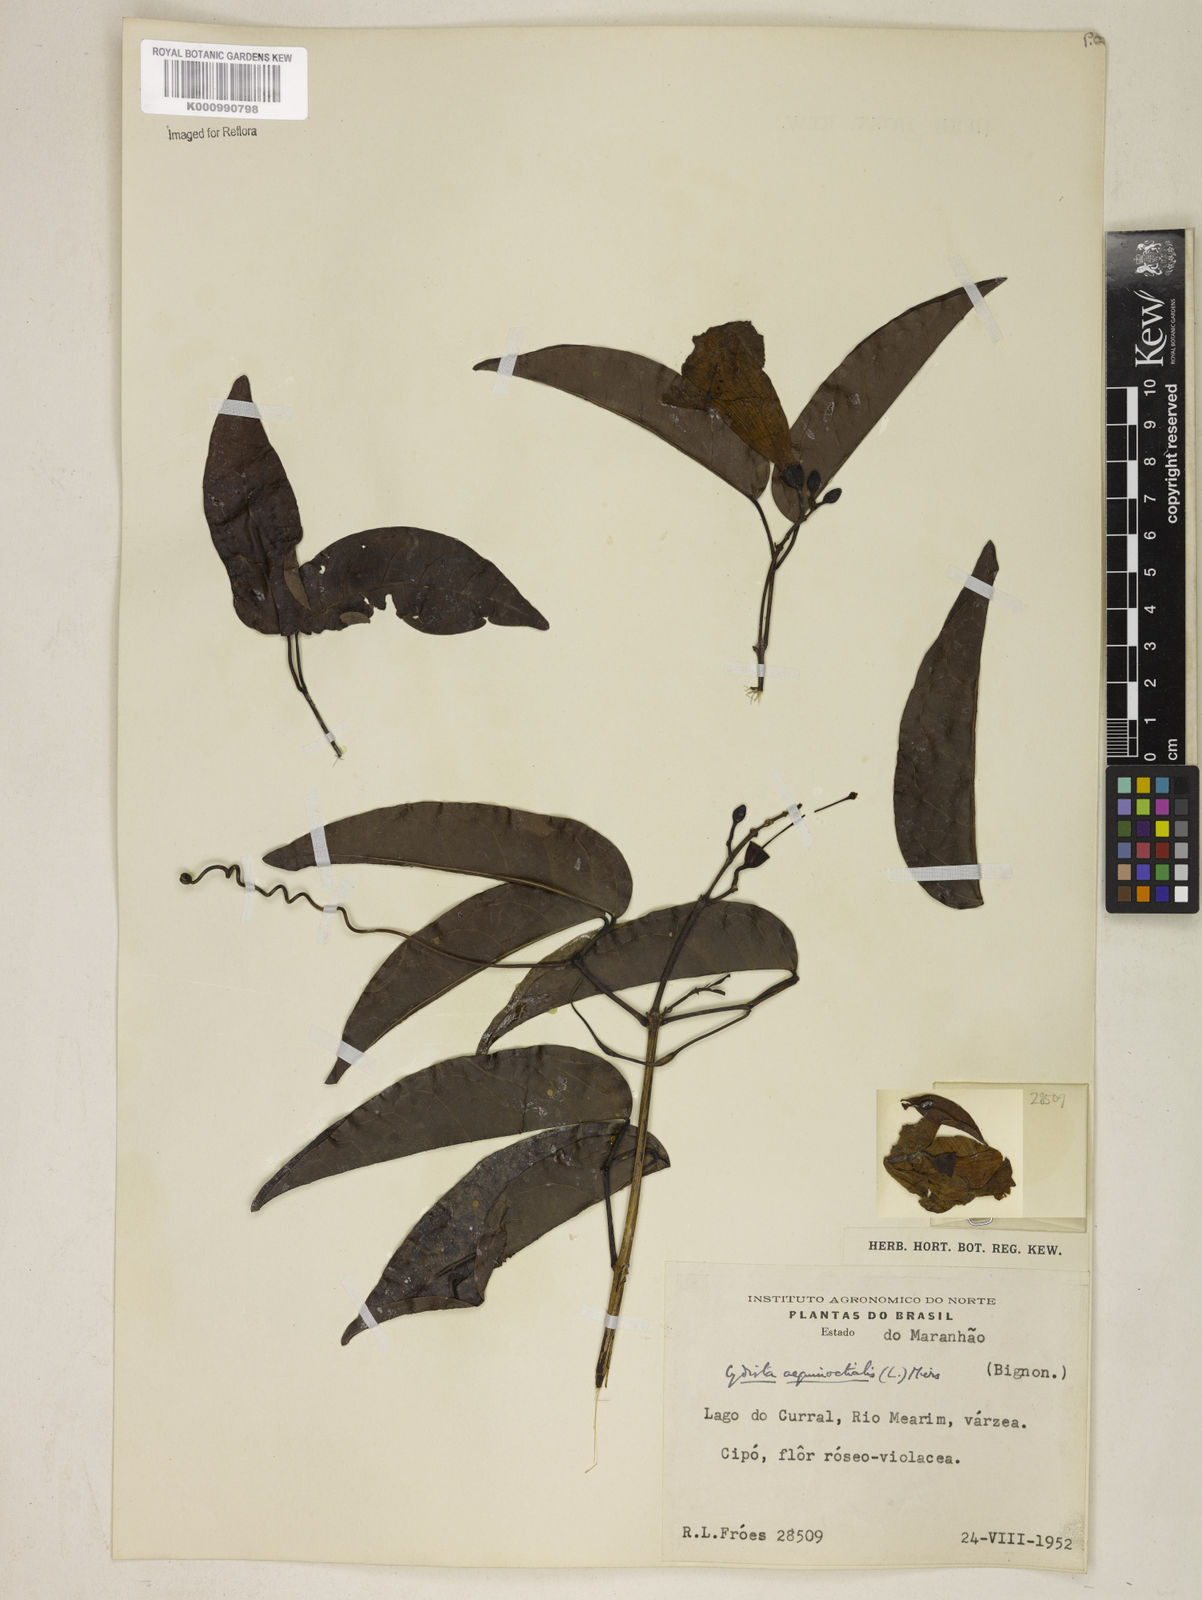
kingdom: Plantae
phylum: Tracheophyta
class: Magnoliopsida
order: Lamiales
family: Bignoniaceae
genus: Bignonia
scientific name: Bignonia aequinoctialis
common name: Garlicvine
